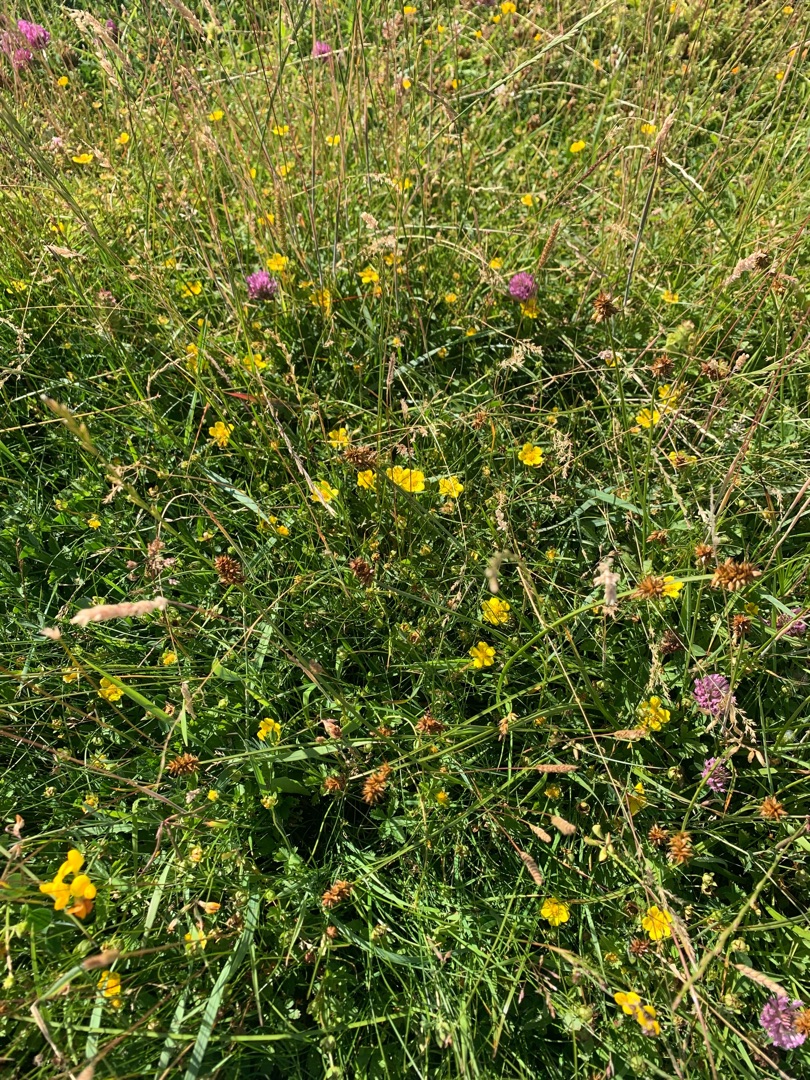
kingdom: Plantae
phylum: Tracheophyta
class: Magnoliopsida
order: Rosales
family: Rosaceae
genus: Potentilla
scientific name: Potentilla reptans
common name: Krybende potentil
